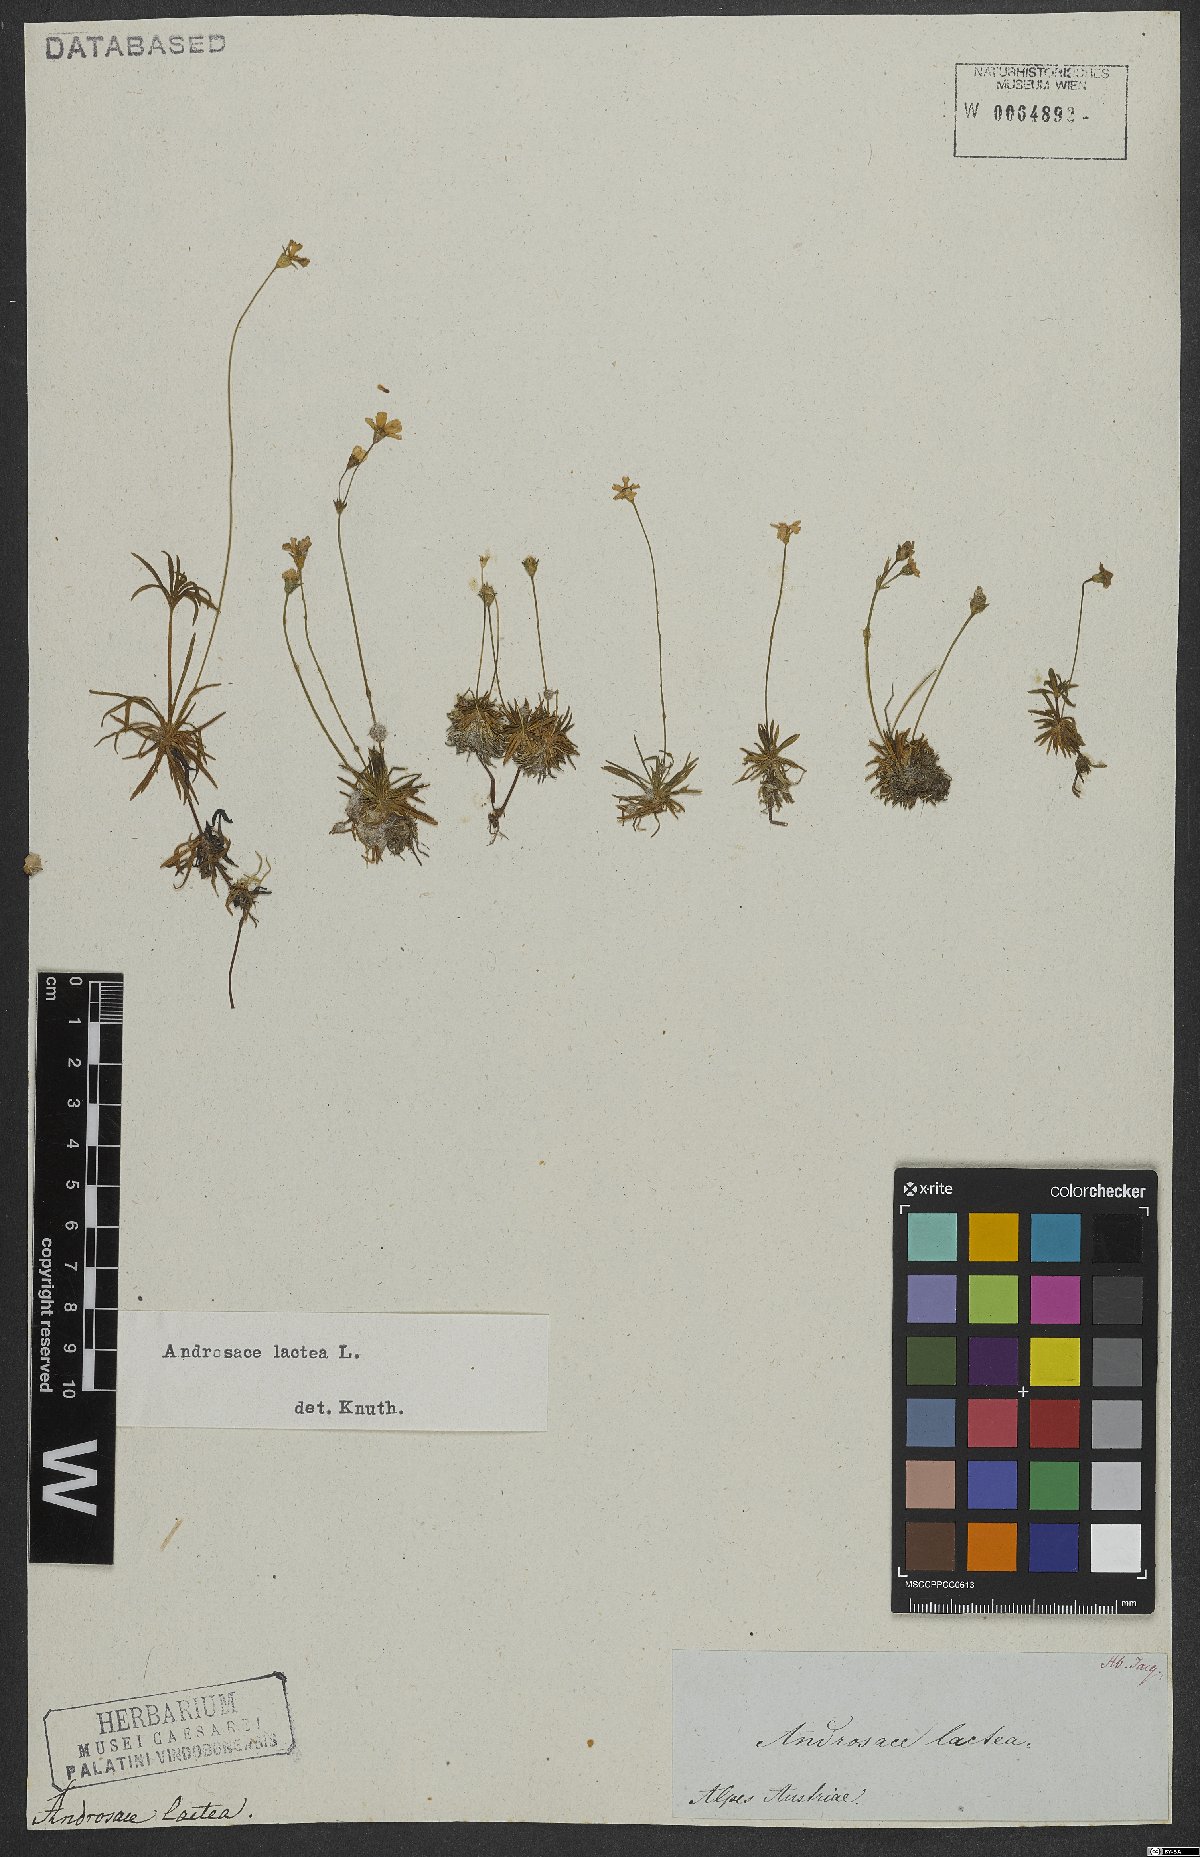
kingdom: Plantae
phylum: Tracheophyta
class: Magnoliopsida
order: Ericales
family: Primulaceae
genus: Androsace
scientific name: Androsace lactea
